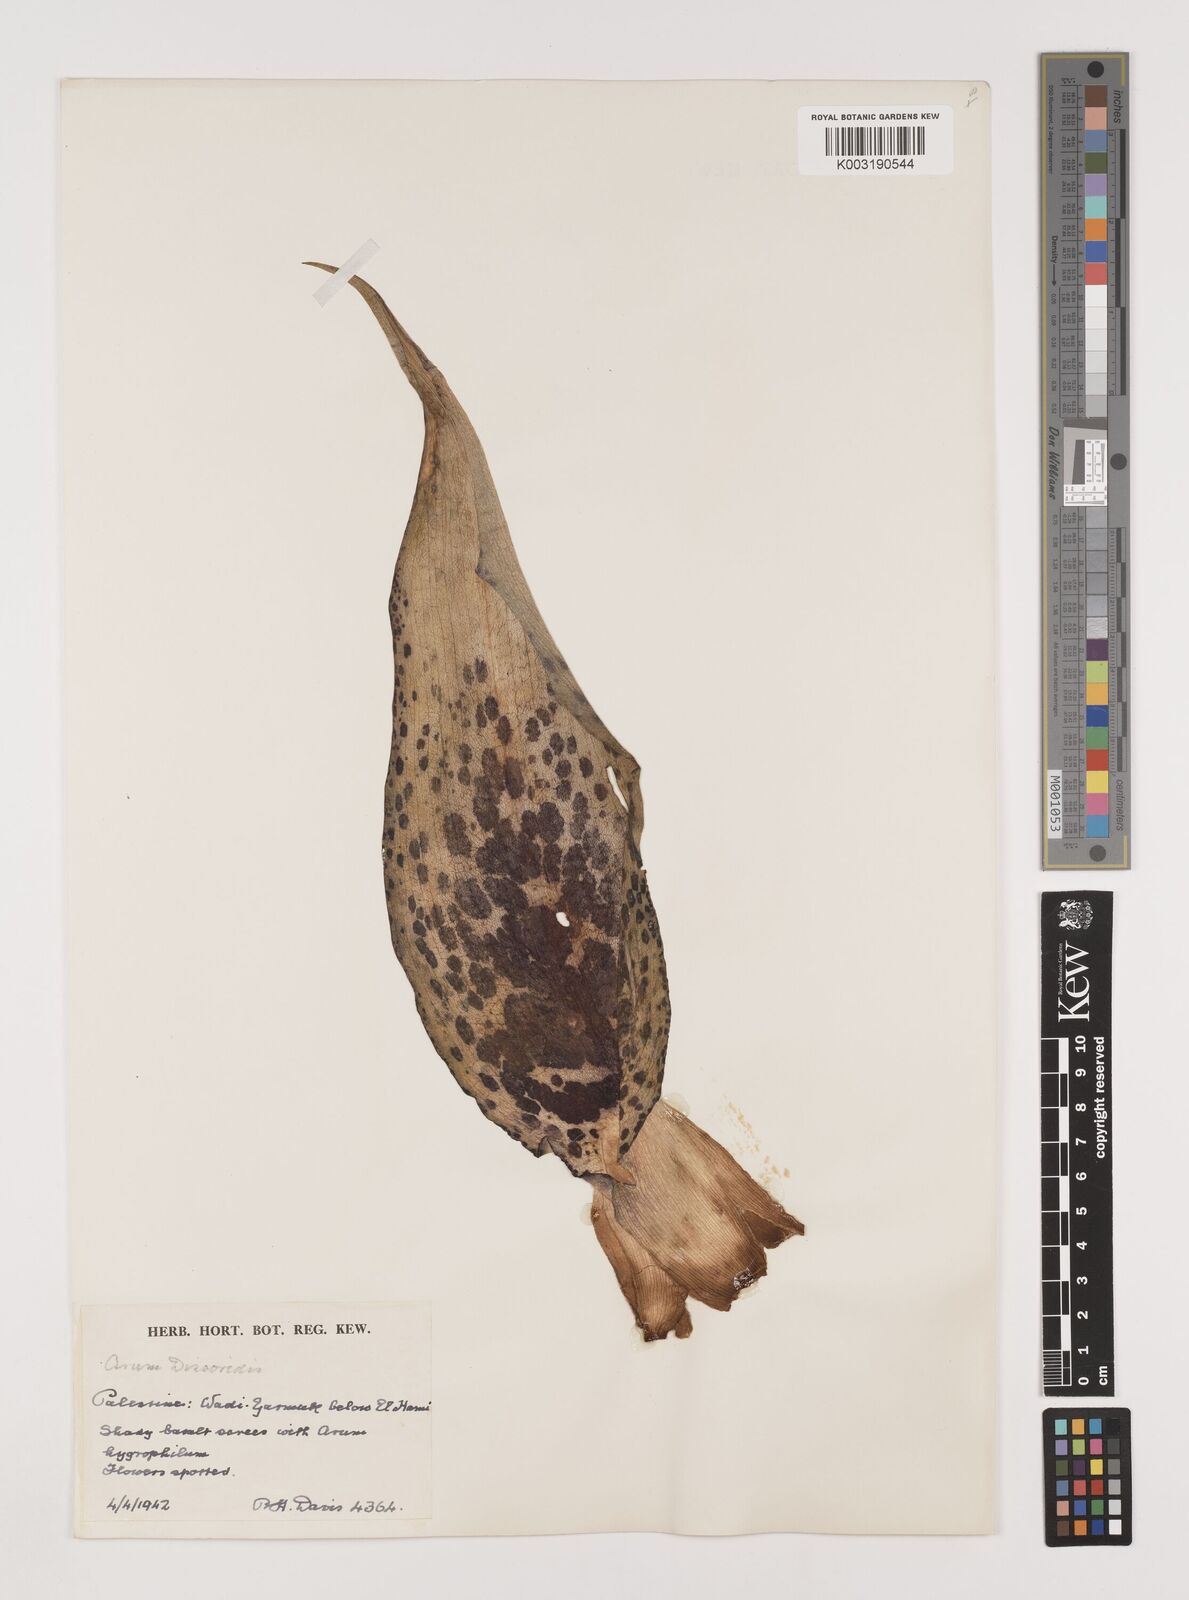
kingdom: Plantae
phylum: Tracheophyta
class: Liliopsida
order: Alismatales
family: Araceae
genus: Arum
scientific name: Arum dioscoridis
